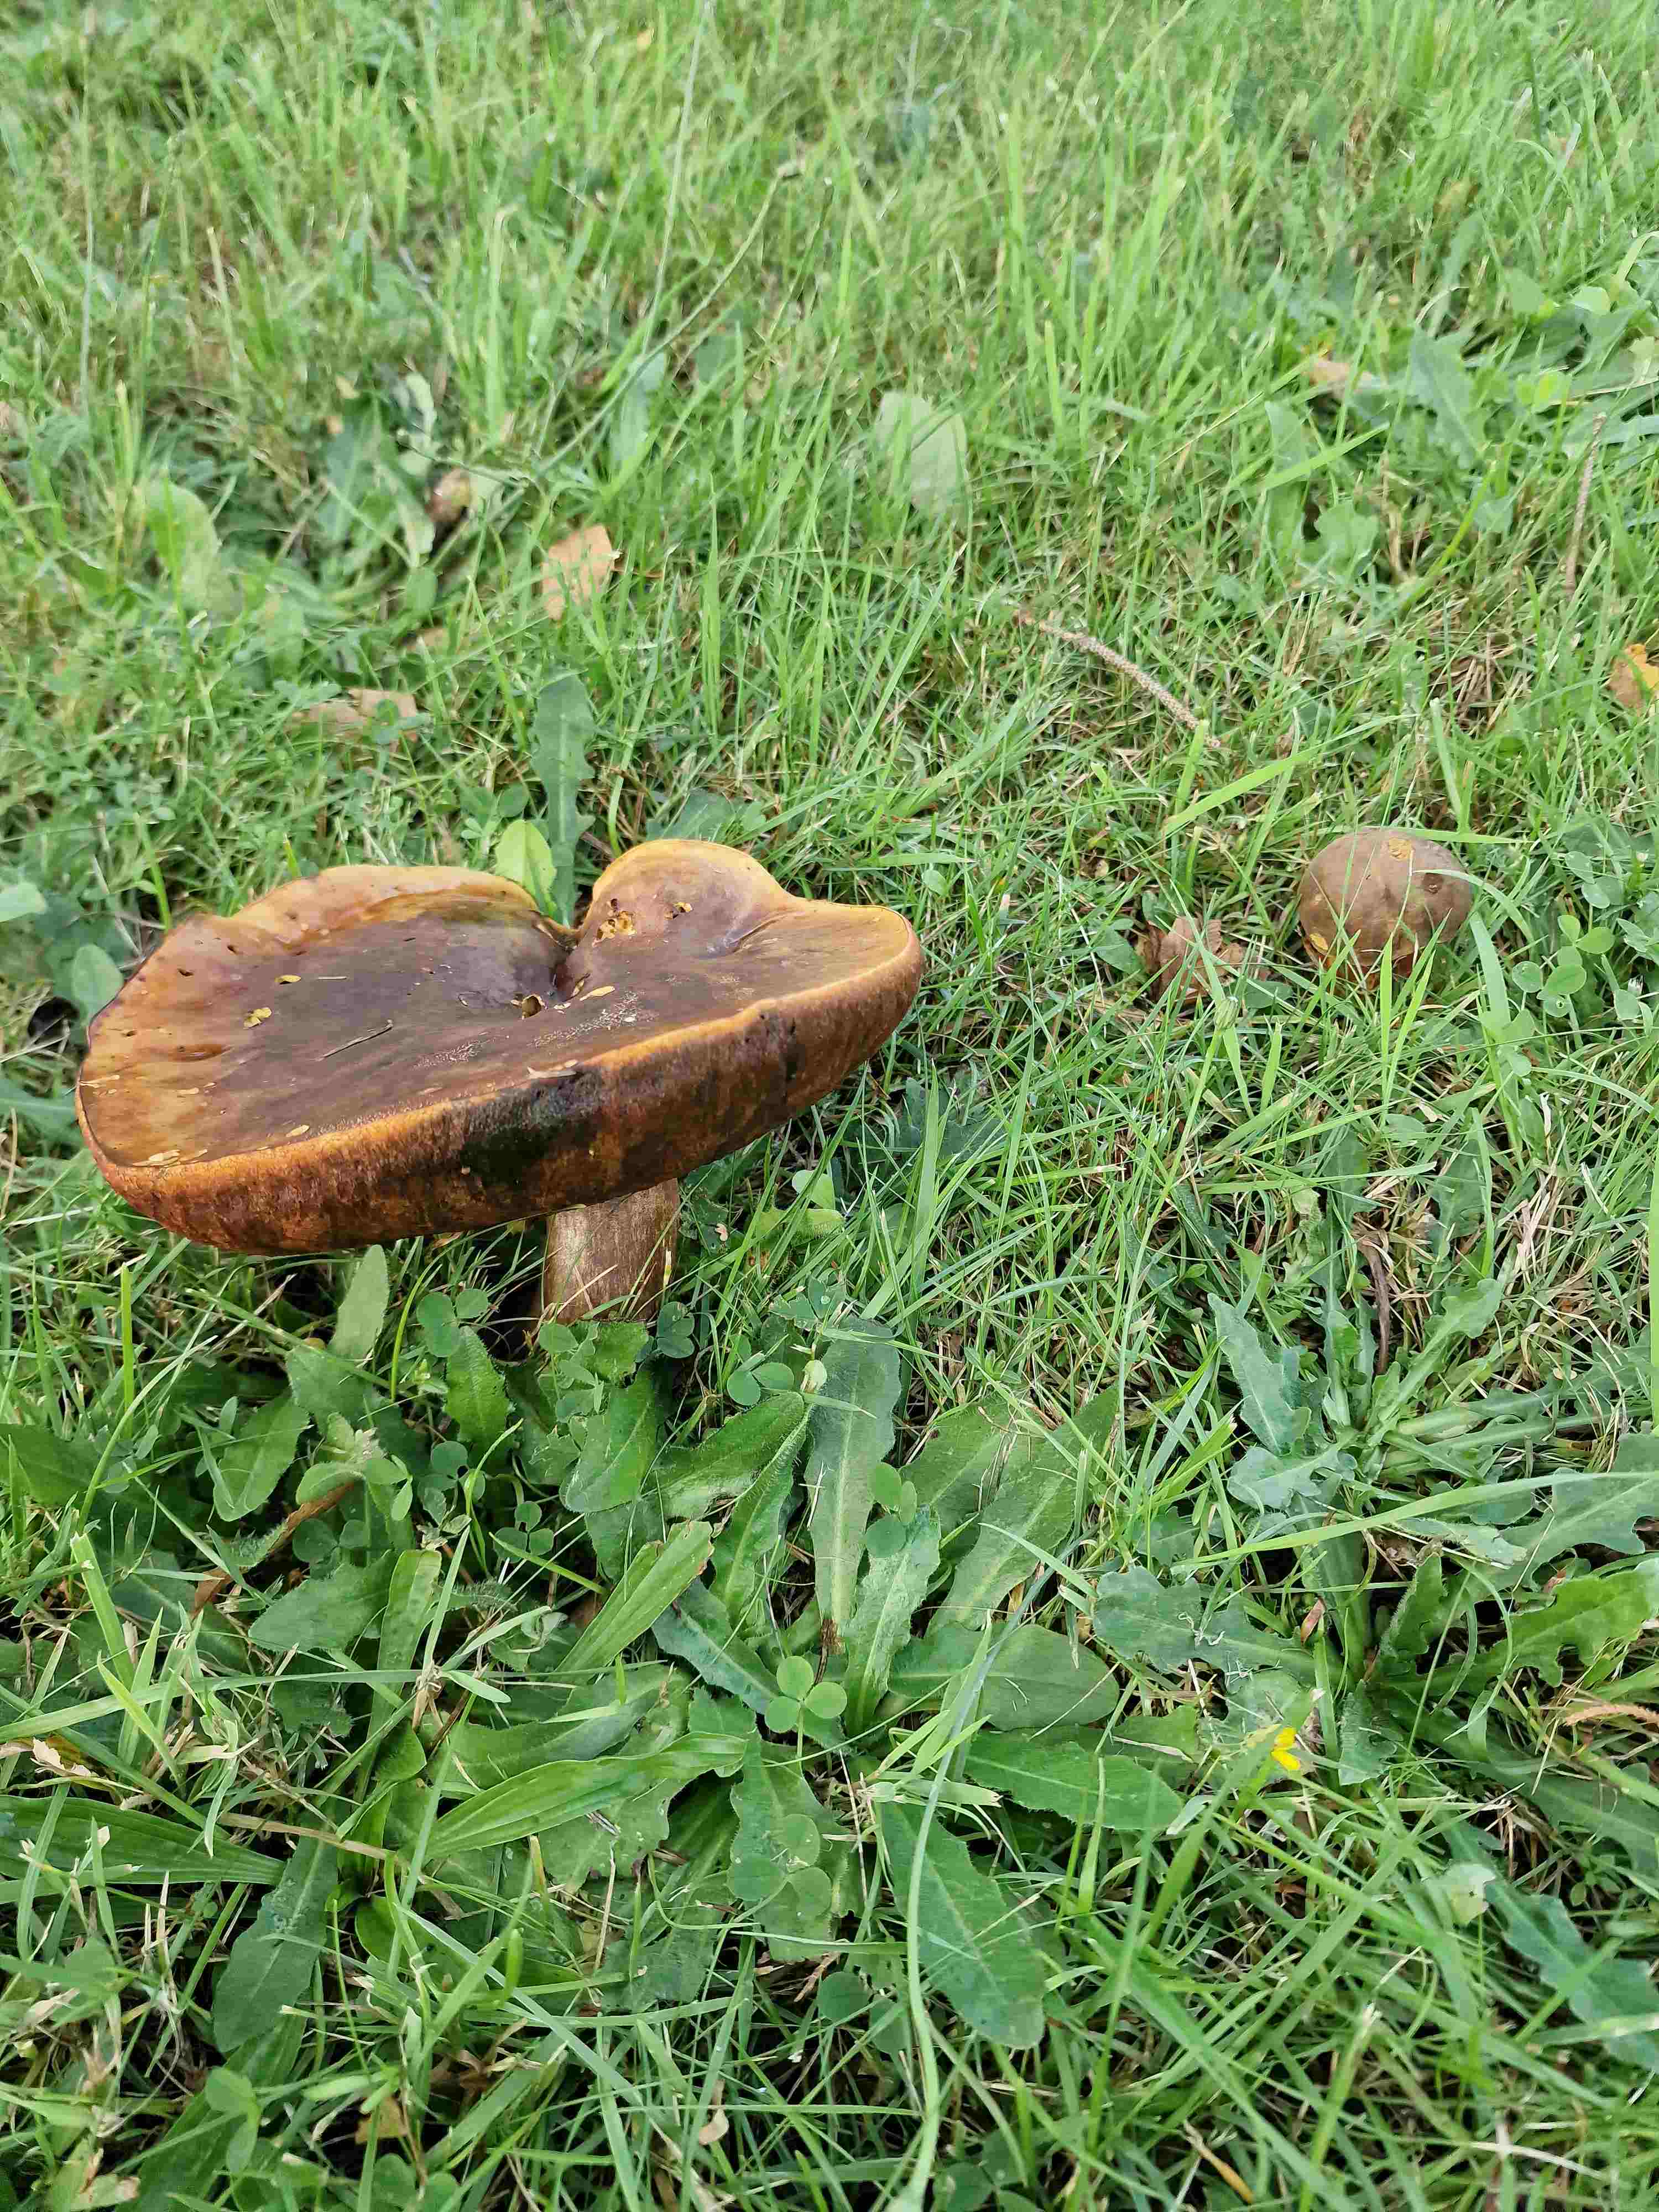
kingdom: Fungi
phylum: Basidiomycota
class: Agaricomycetes
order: Boletales
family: Boletaceae
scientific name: Boletaceae
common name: rørhatfamilien
